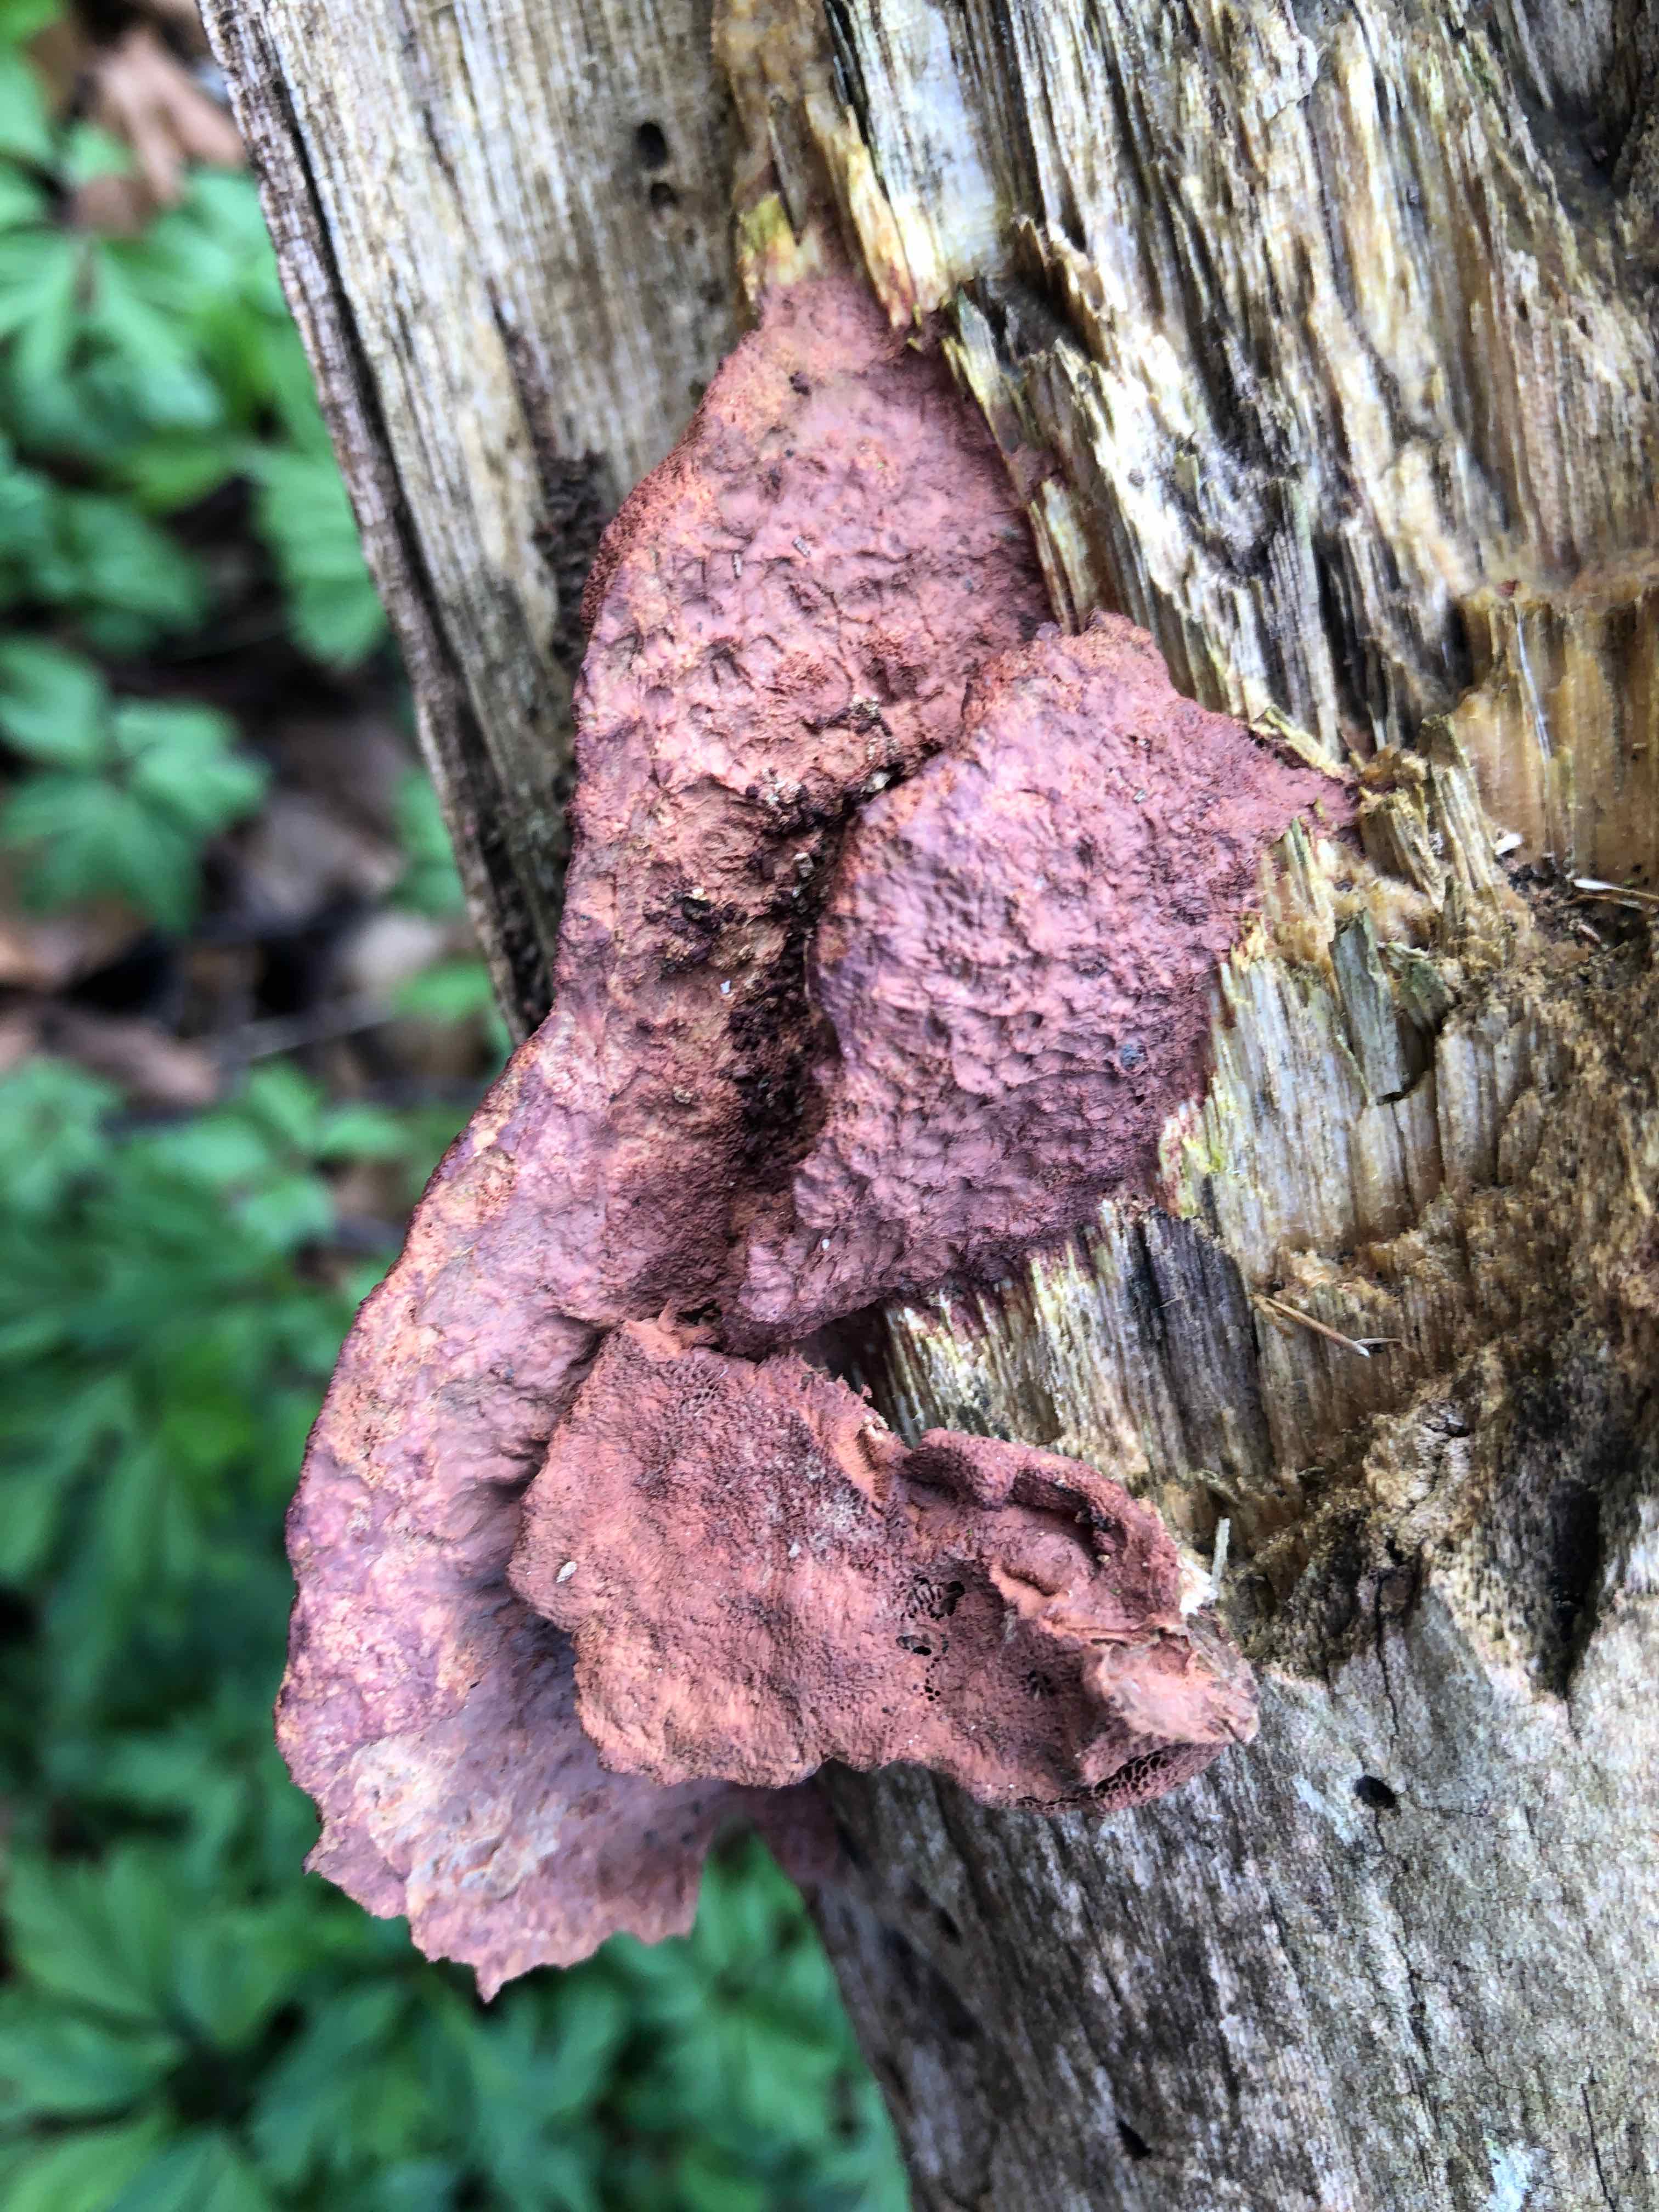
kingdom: Fungi
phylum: Basidiomycota
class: Agaricomycetes
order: Polyporales
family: Phanerochaetaceae
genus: Hapalopilus
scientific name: Hapalopilus rutilans
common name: rødlig okkerporesvamp
